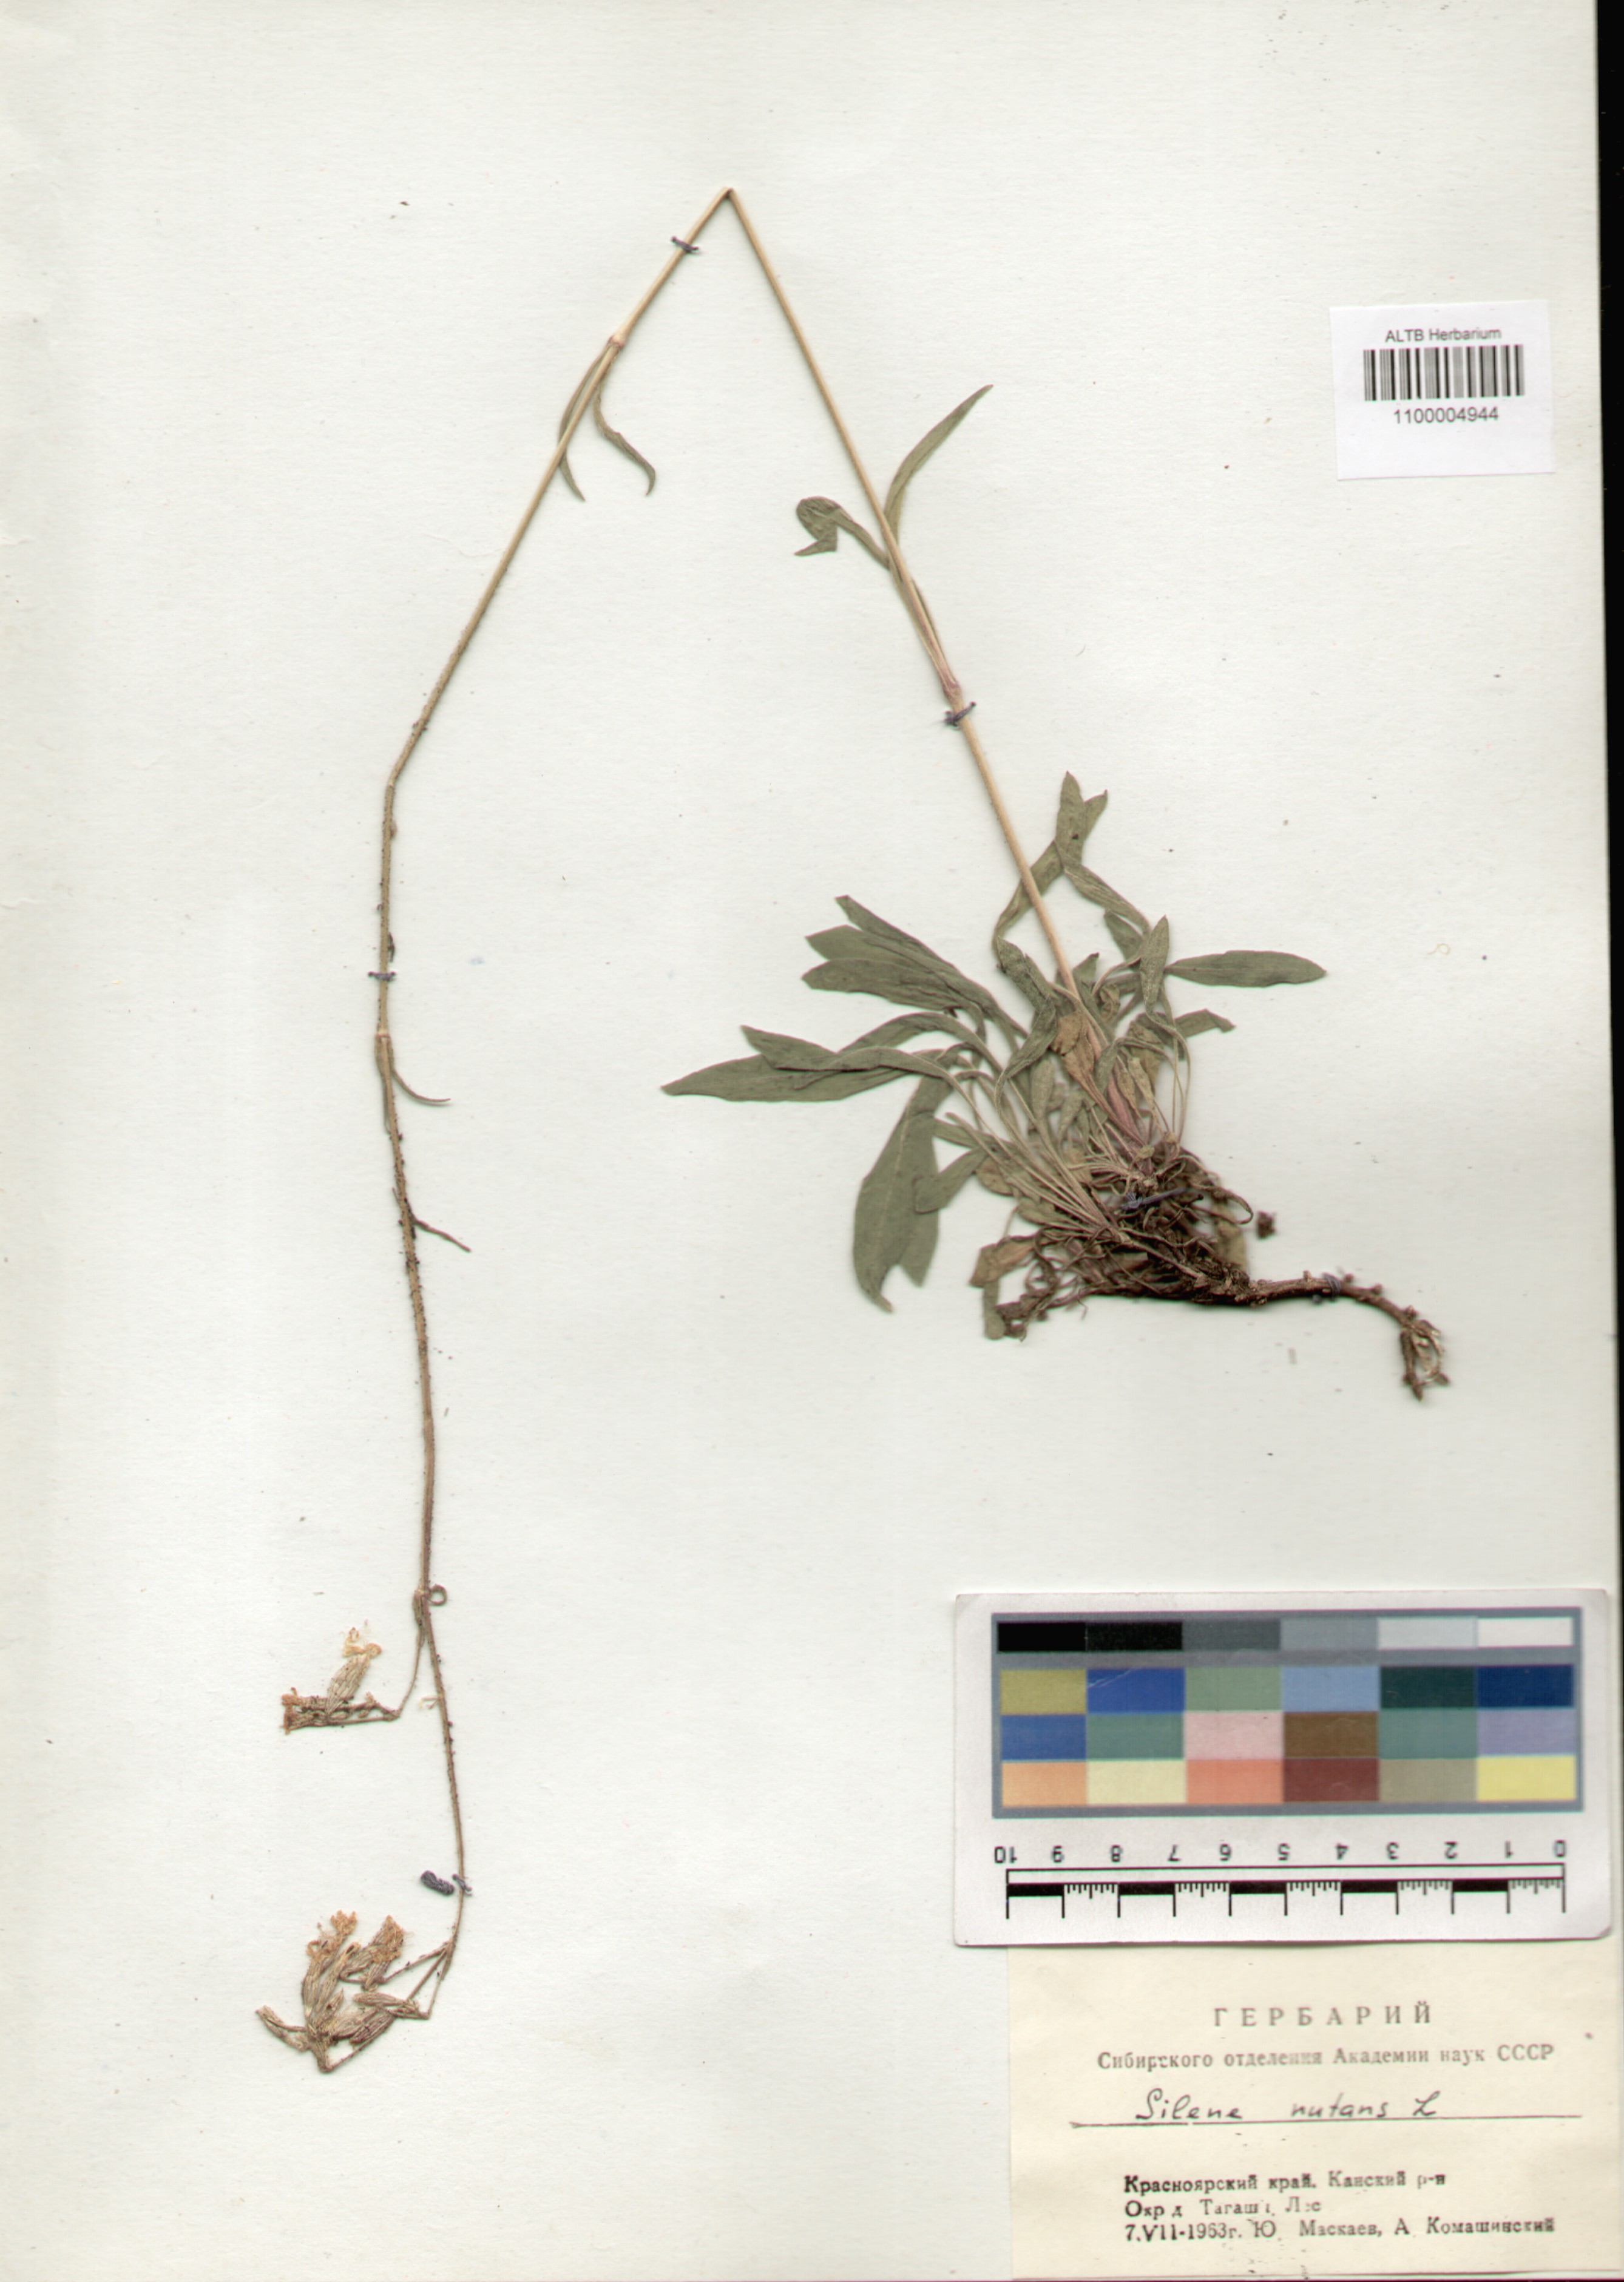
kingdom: Plantae
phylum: Tracheophyta
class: Magnoliopsida
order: Caryophyllales
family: Caryophyllaceae
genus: Silene
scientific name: Silene nutans
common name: Nottingham catchfly
